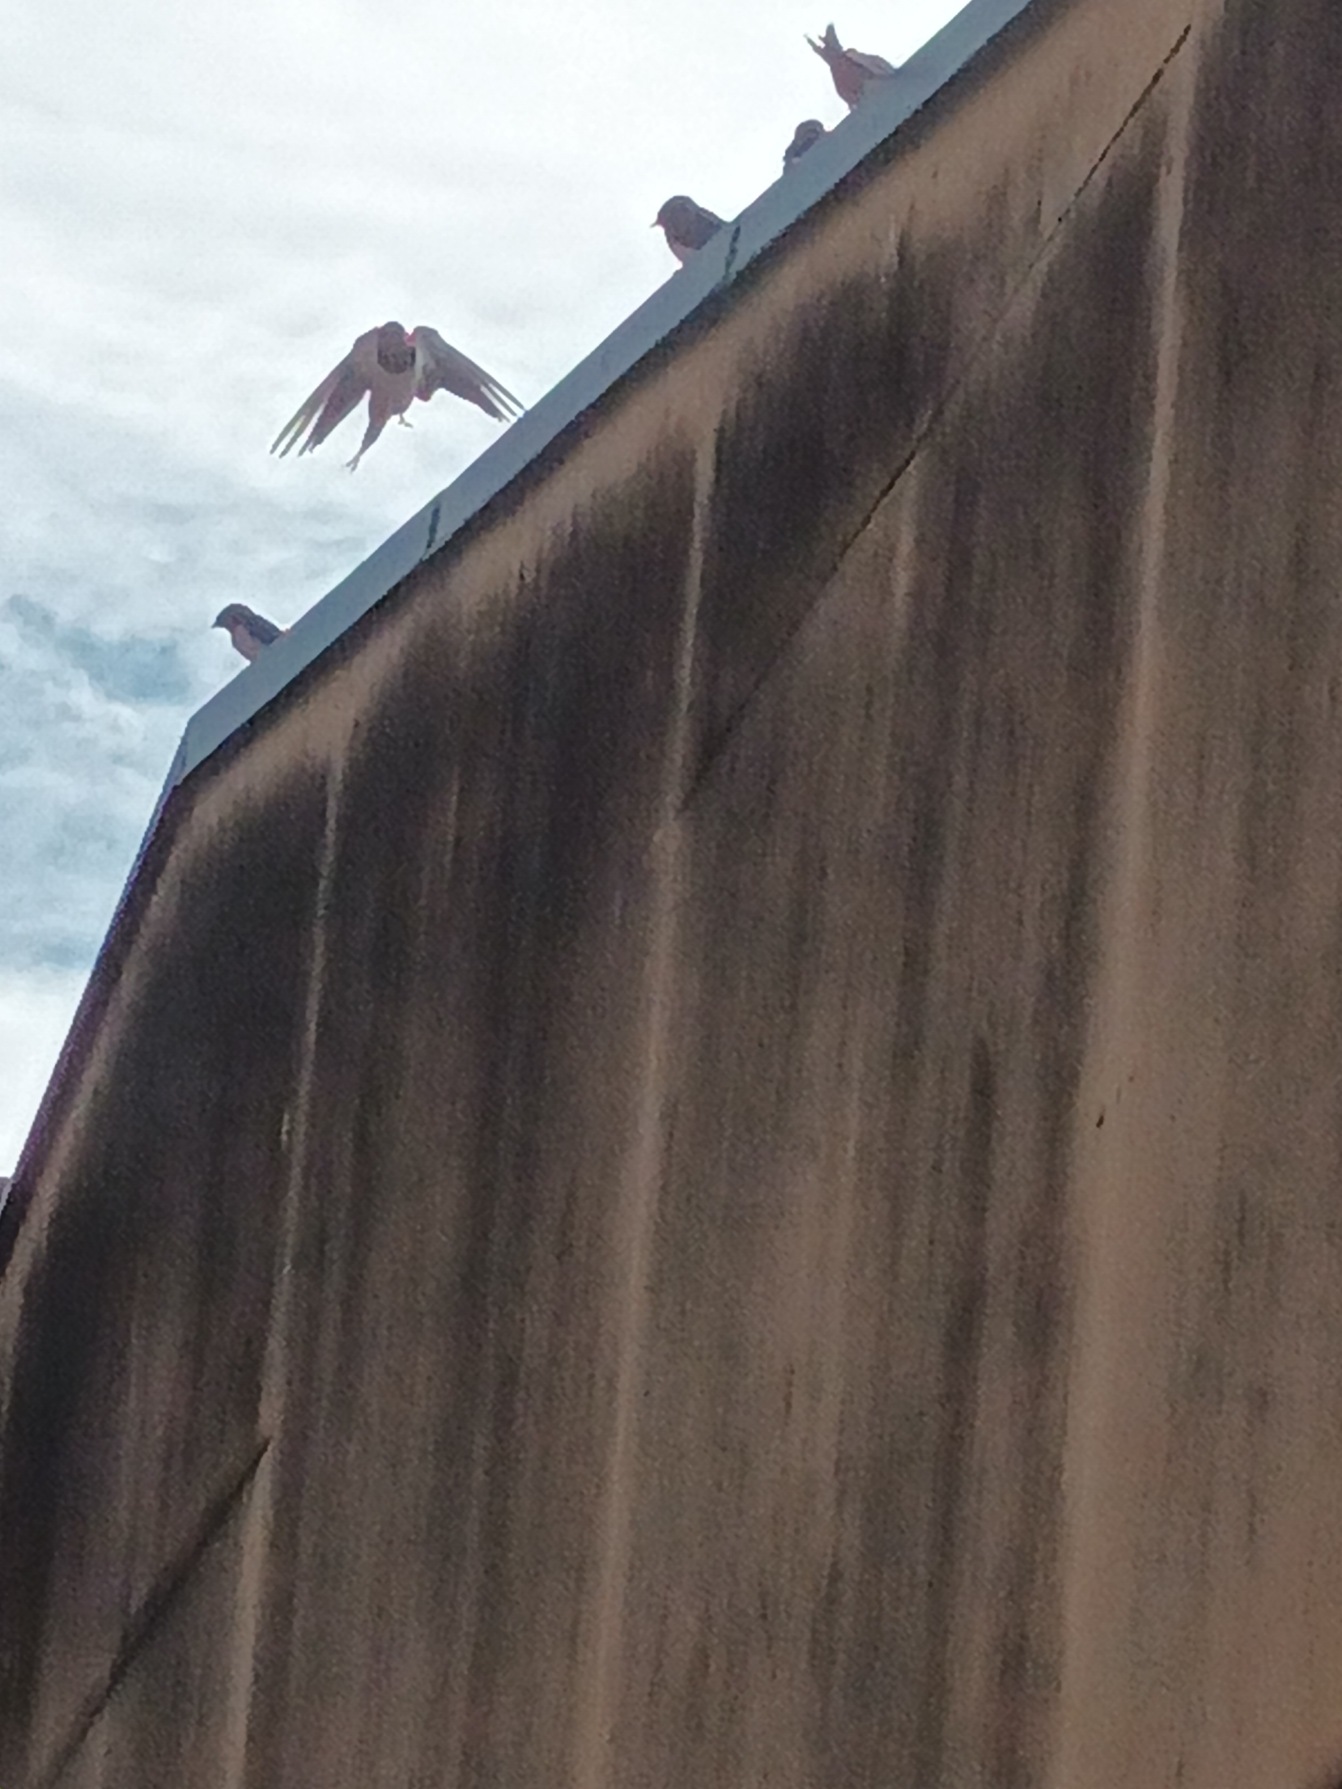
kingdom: Animalia
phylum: Chordata
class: Aves
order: Passeriformes
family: Hirundinidae
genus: Hirundo
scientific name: Hirundo rustica
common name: Landsvale
